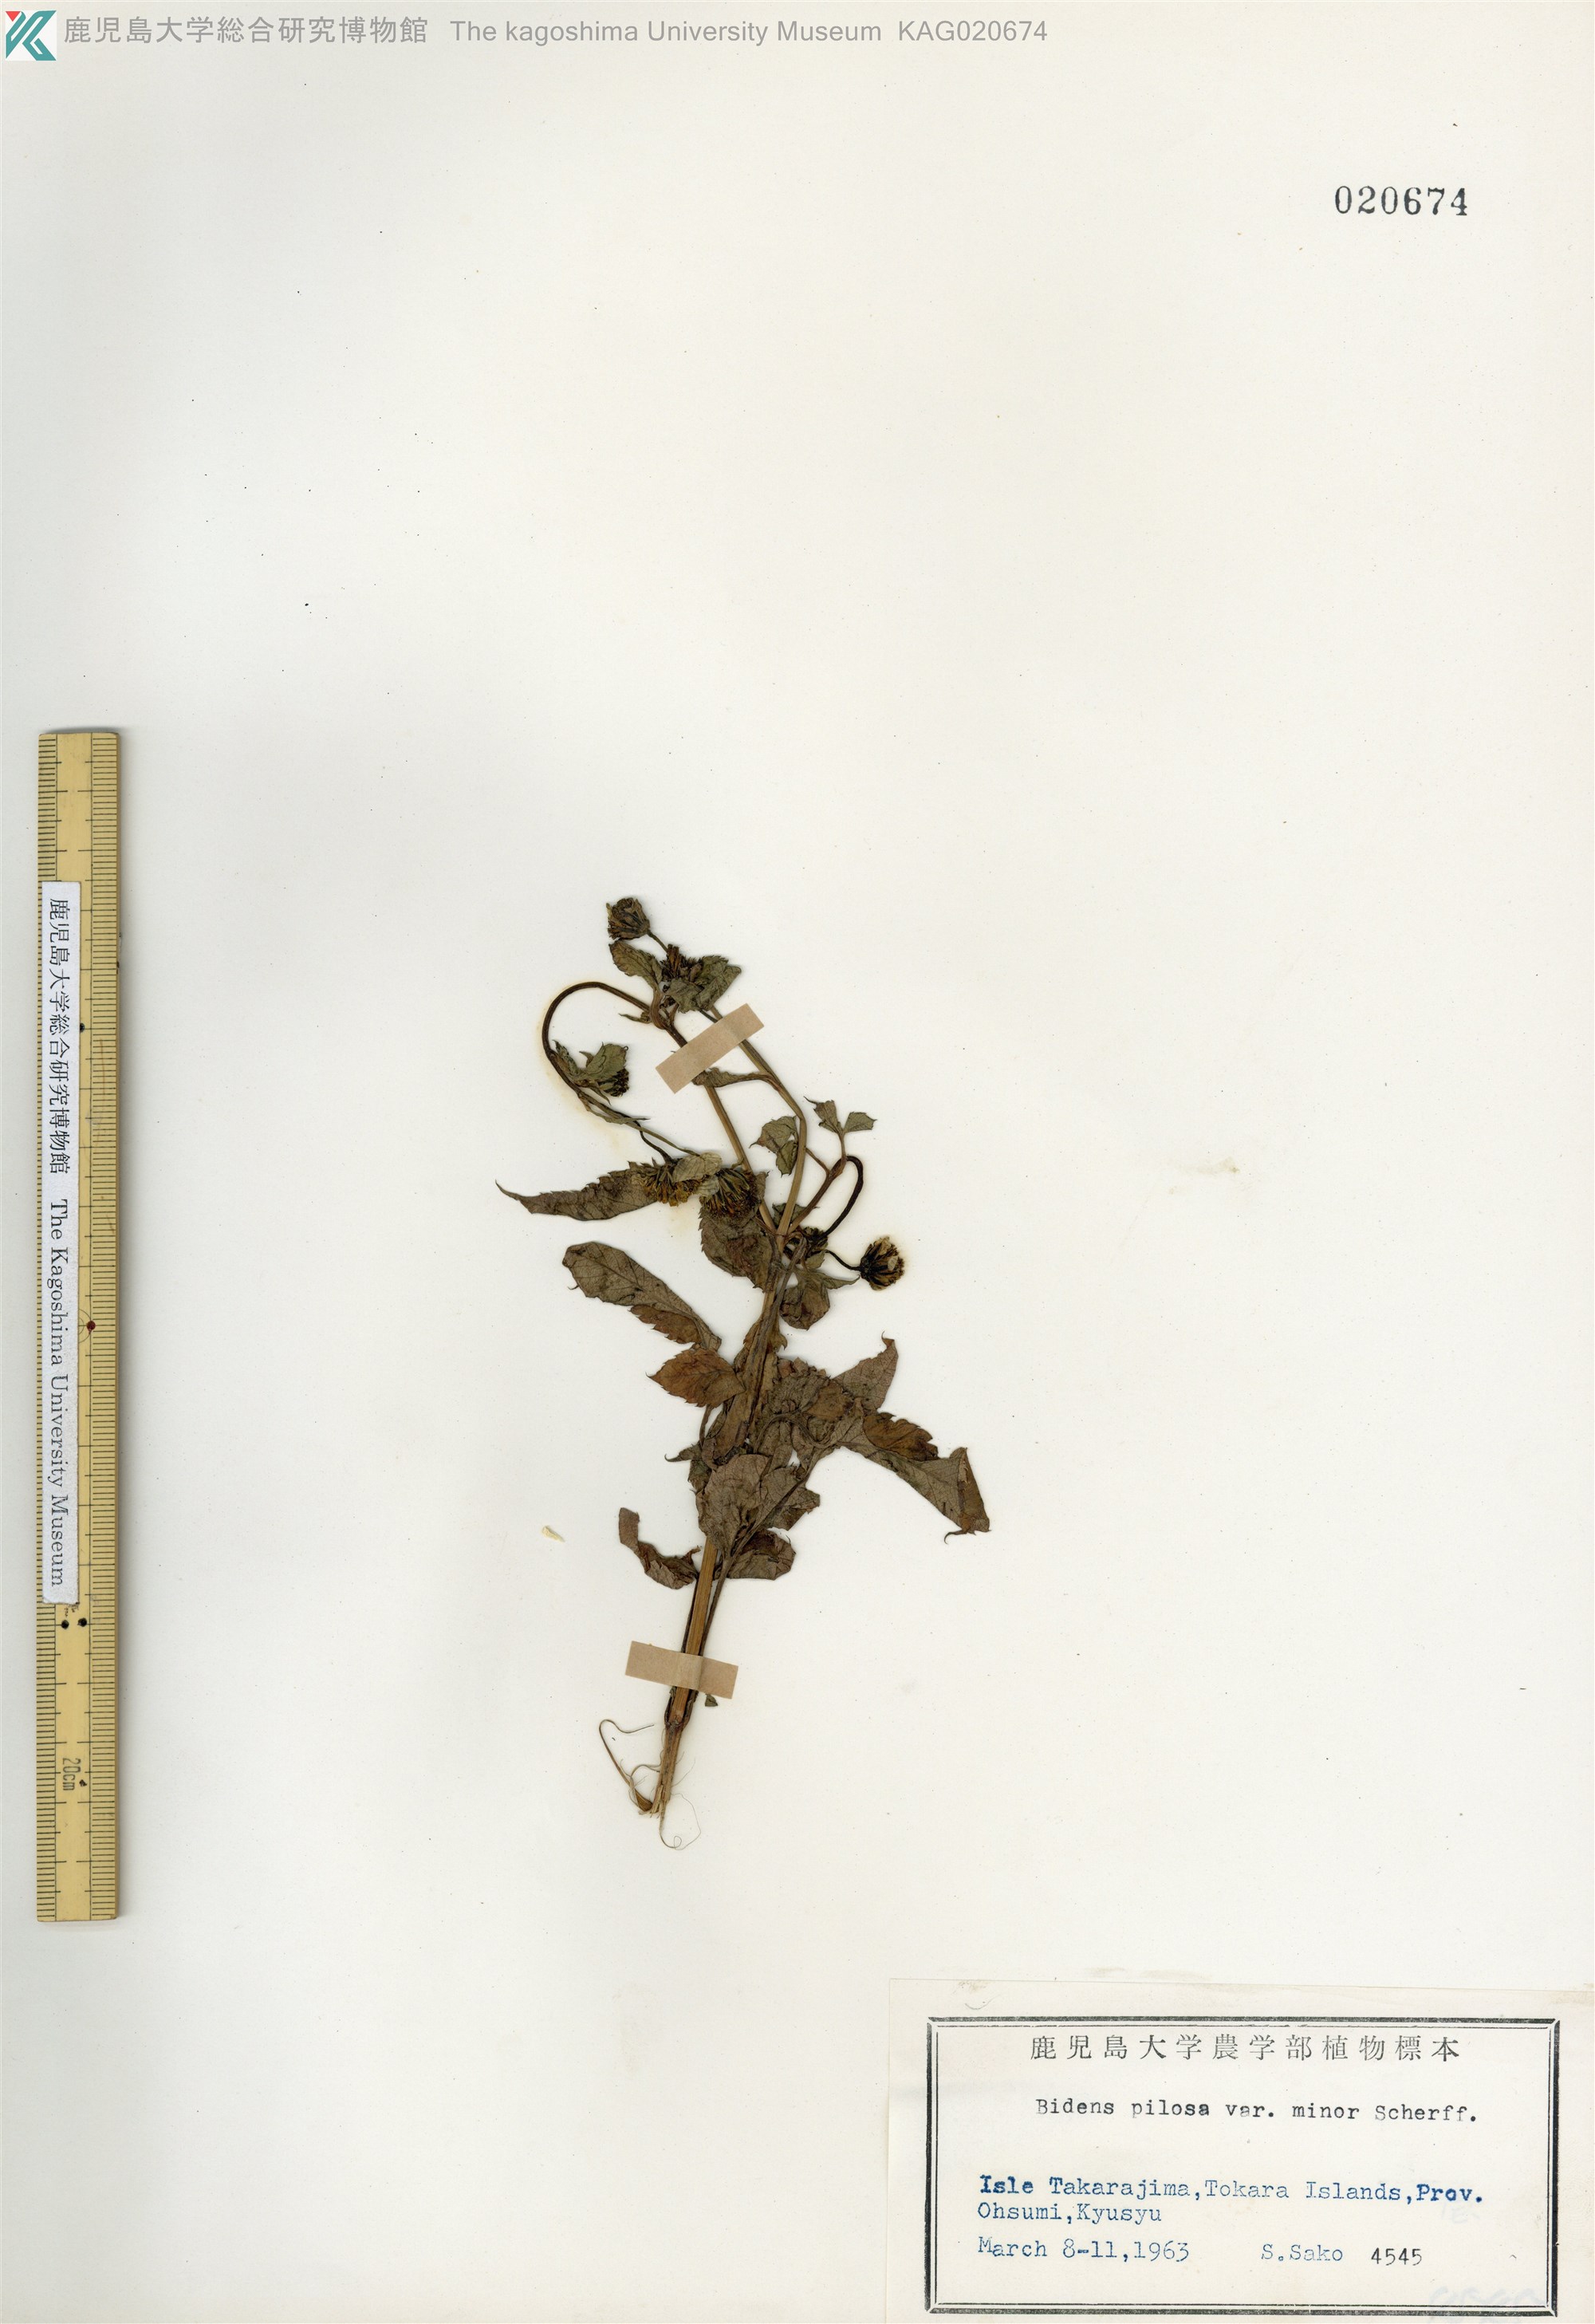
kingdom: Plantae
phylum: Tracheophyta
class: Magnoliopsida
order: Asterales
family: Asteraceae
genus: Bidens
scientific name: Bidens pilosa
